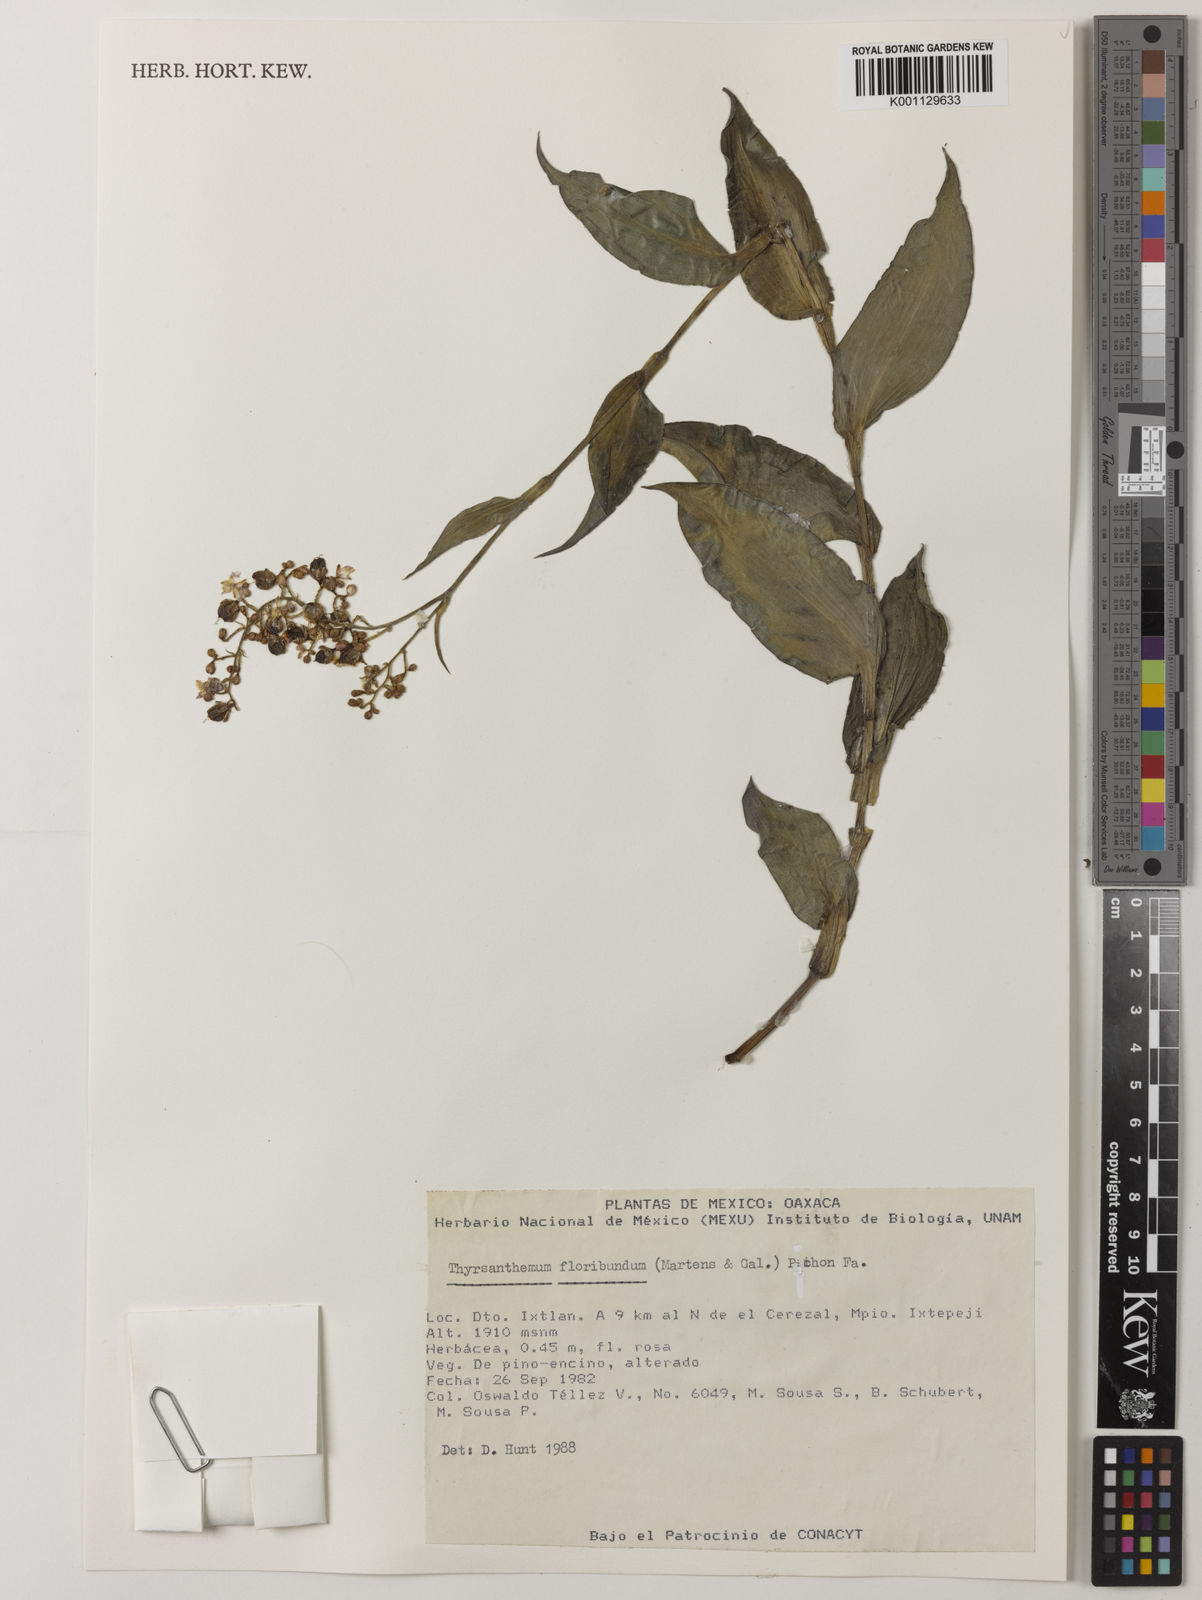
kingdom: Plantae
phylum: Tracheophyta
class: Liliopsida
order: Commelinales
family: Commelinaceae
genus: Thyrsanthemum
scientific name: Thyrsanthemum floribundum
